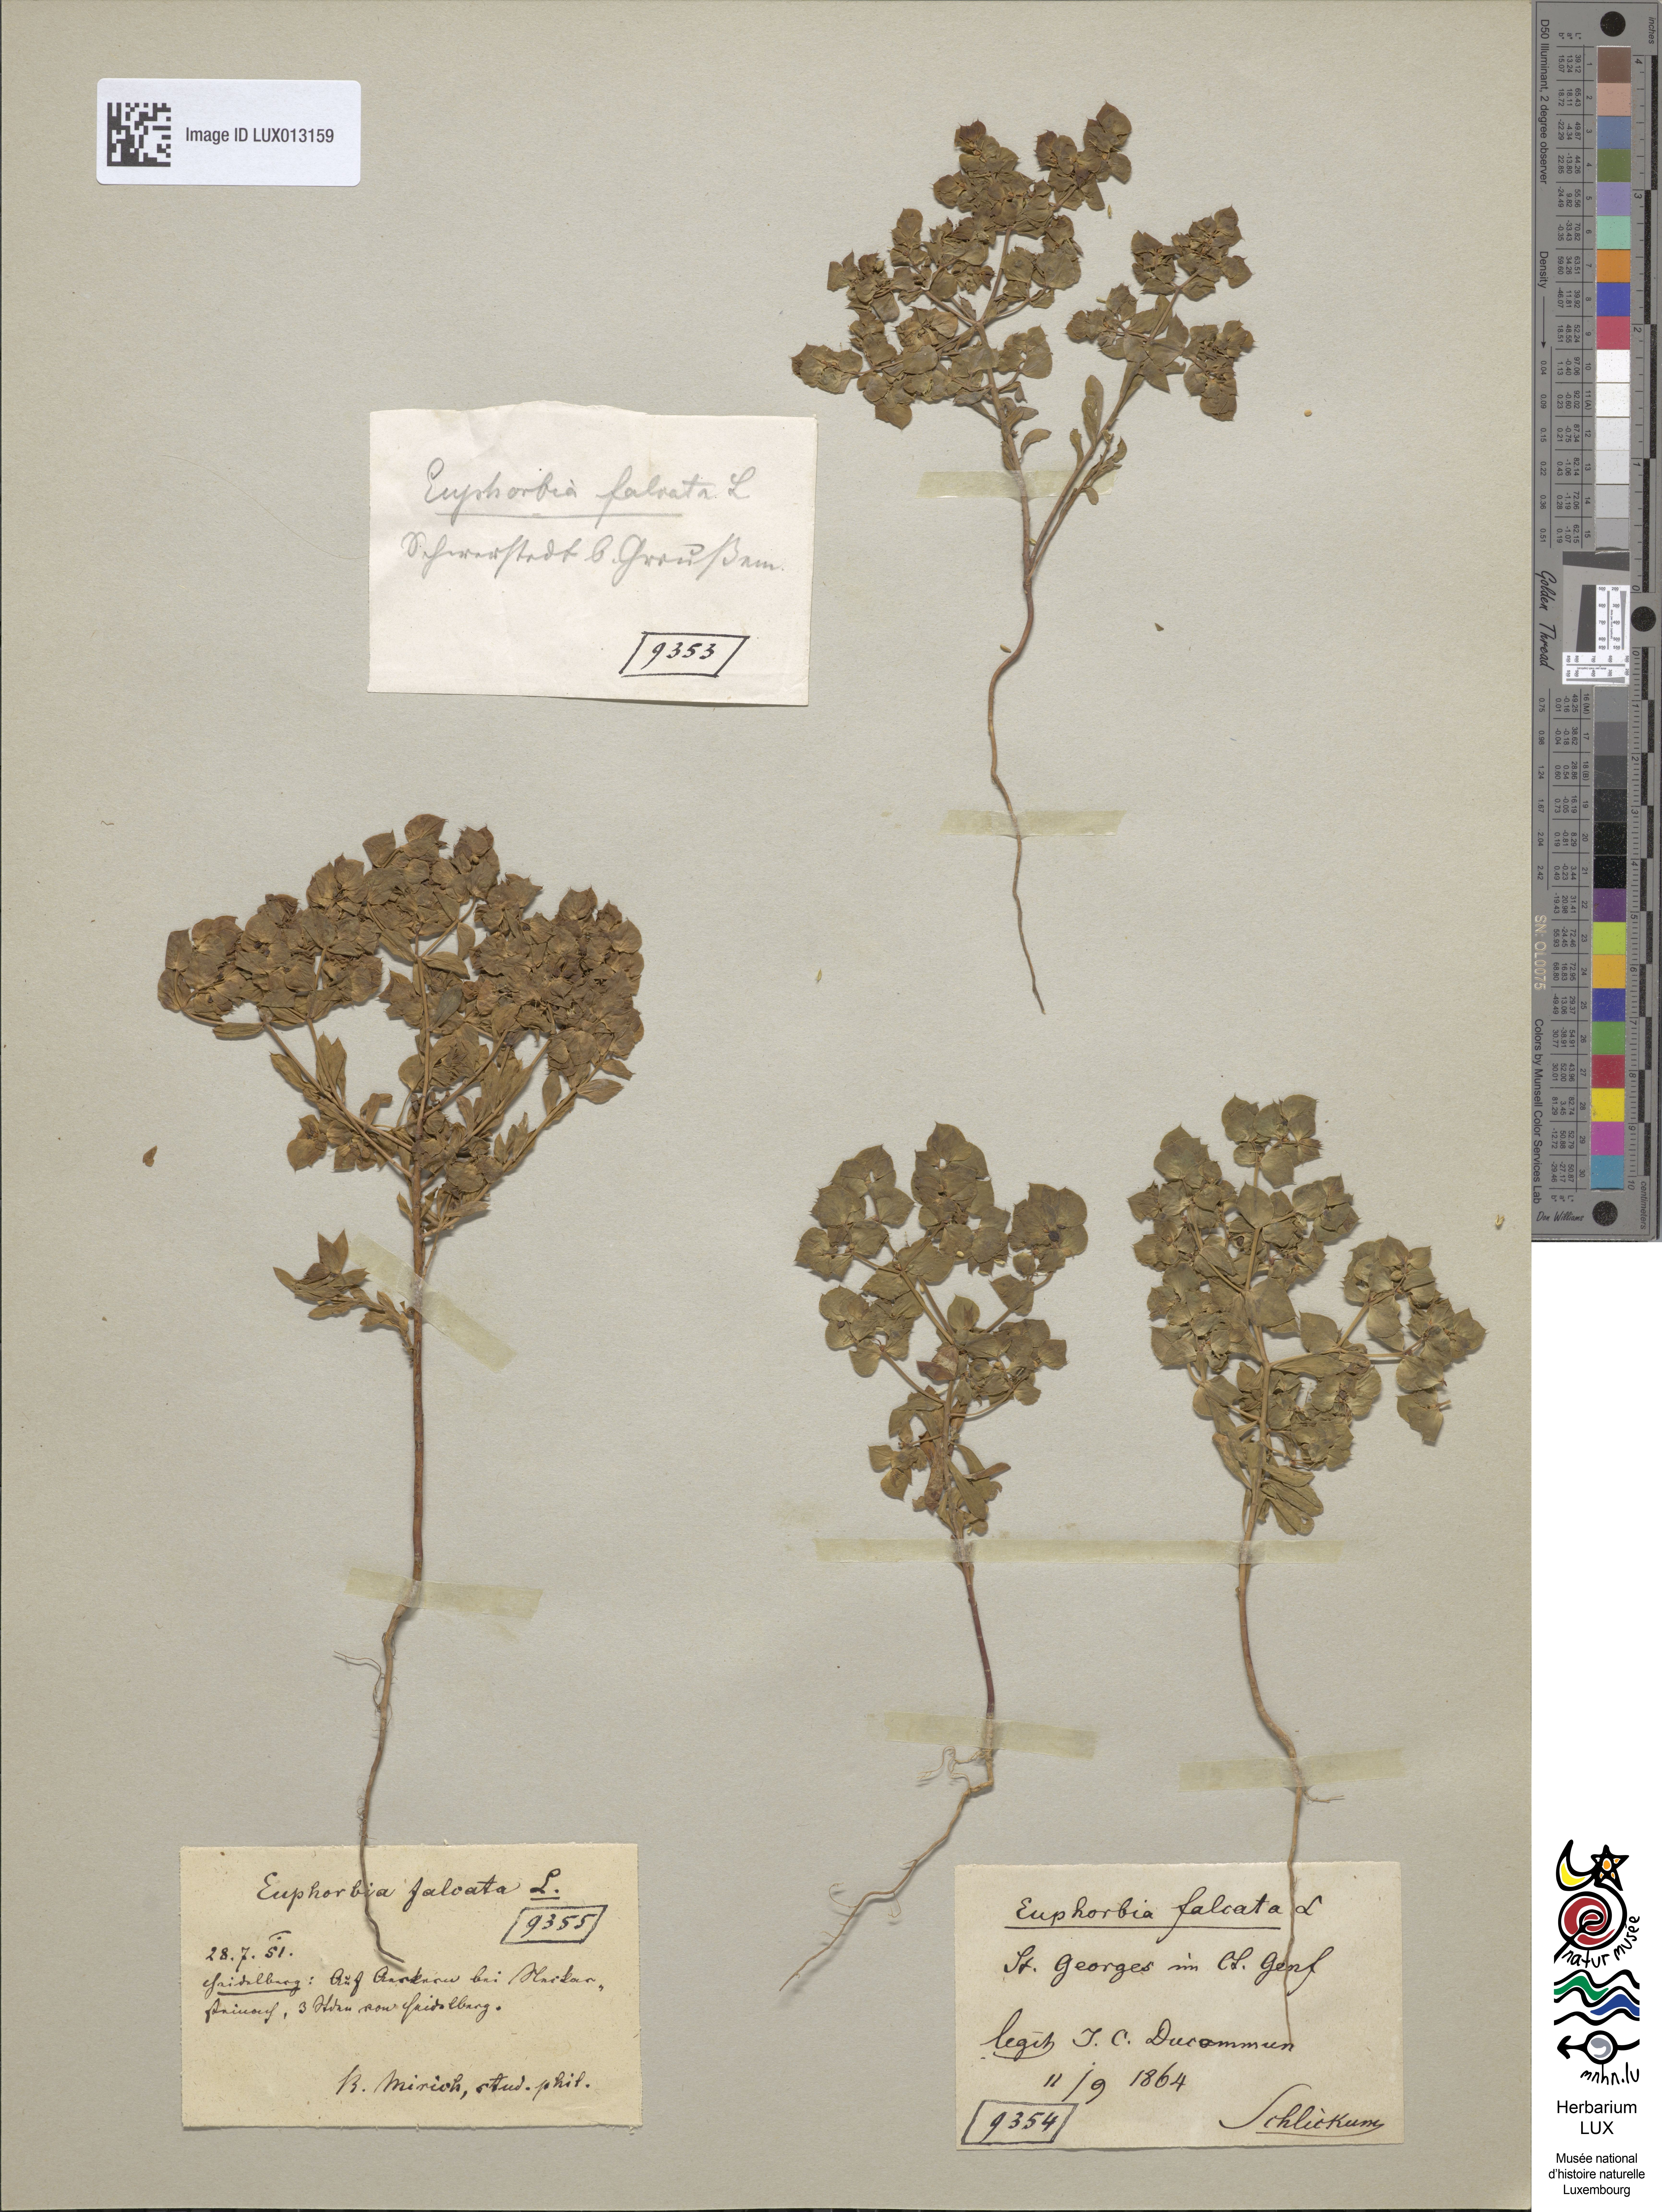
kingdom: Plantae
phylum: Tracheophyta
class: Magnoliopsida
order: Malpighiales
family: Euphorbiaceae
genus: Euphorbia
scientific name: Euphorbia falcata
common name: Sickle spurge
